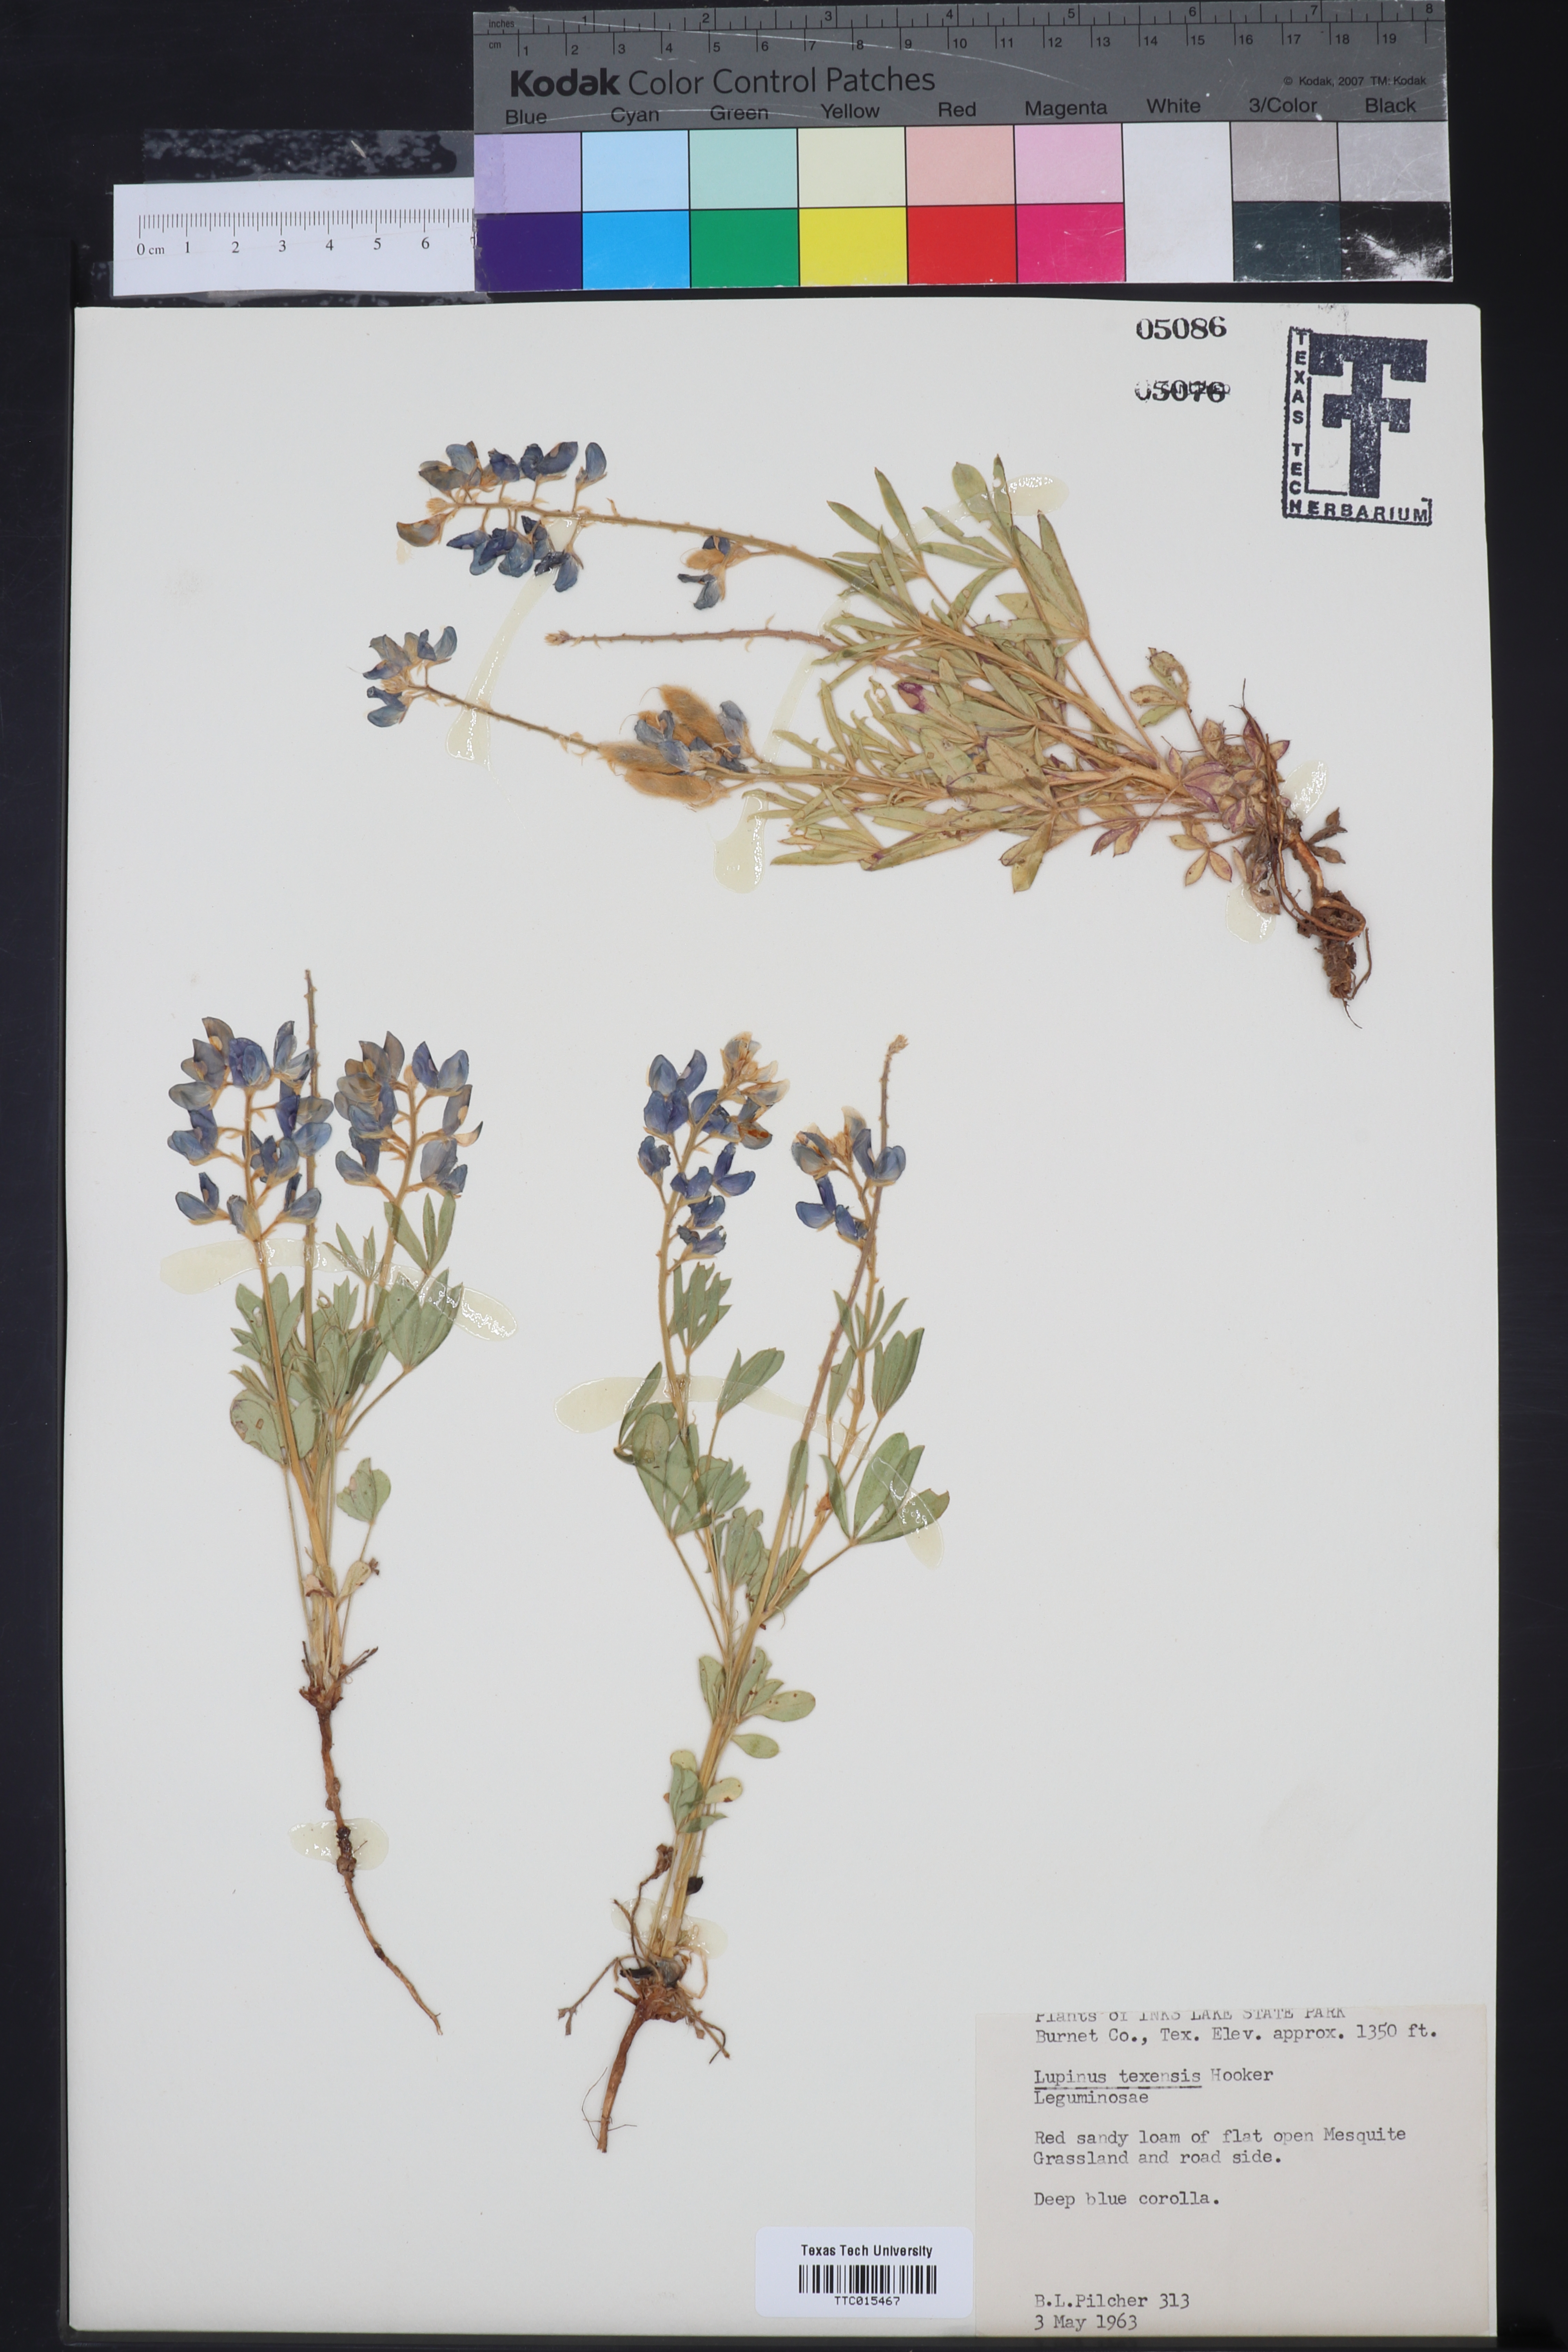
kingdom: Plantae
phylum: Tracheophyta
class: Magnoliopsida
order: Fabales
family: Fabaceae
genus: Lupinus
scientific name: Lupinus texensis
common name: Texas bluebonnet
